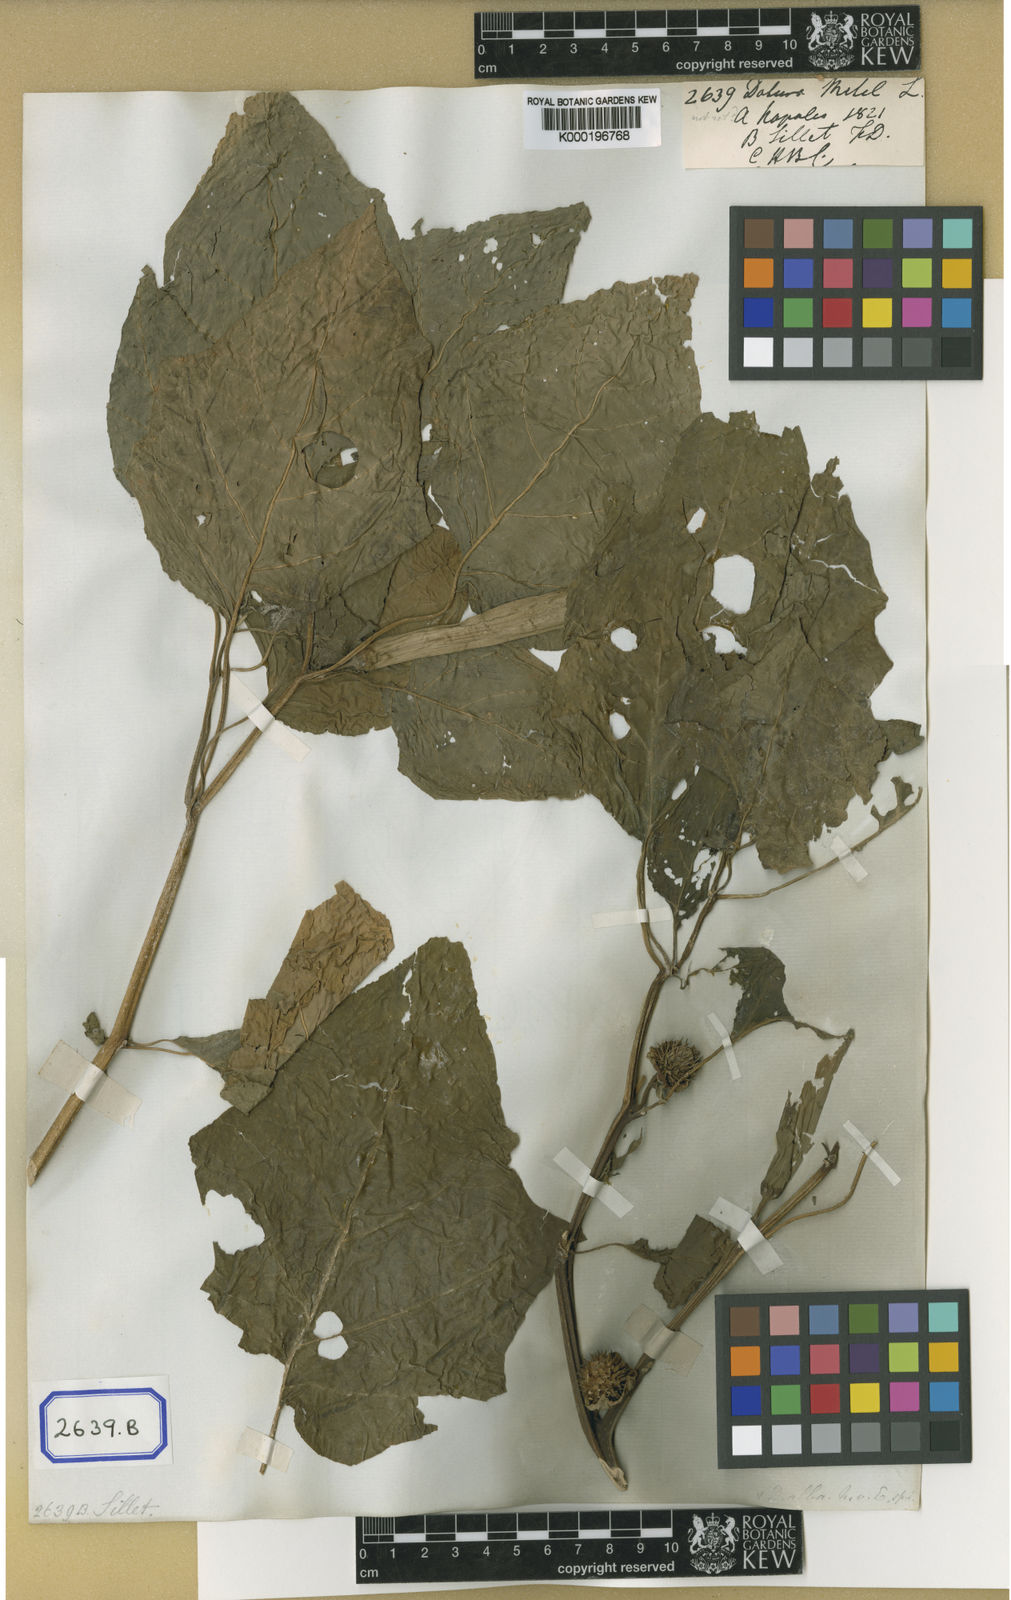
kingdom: Plantae
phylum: Tracheophyta
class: Magnoliopsida
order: Solanales
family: Solanaceae
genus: Datura
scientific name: Datura metel
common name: Jimsonweed
